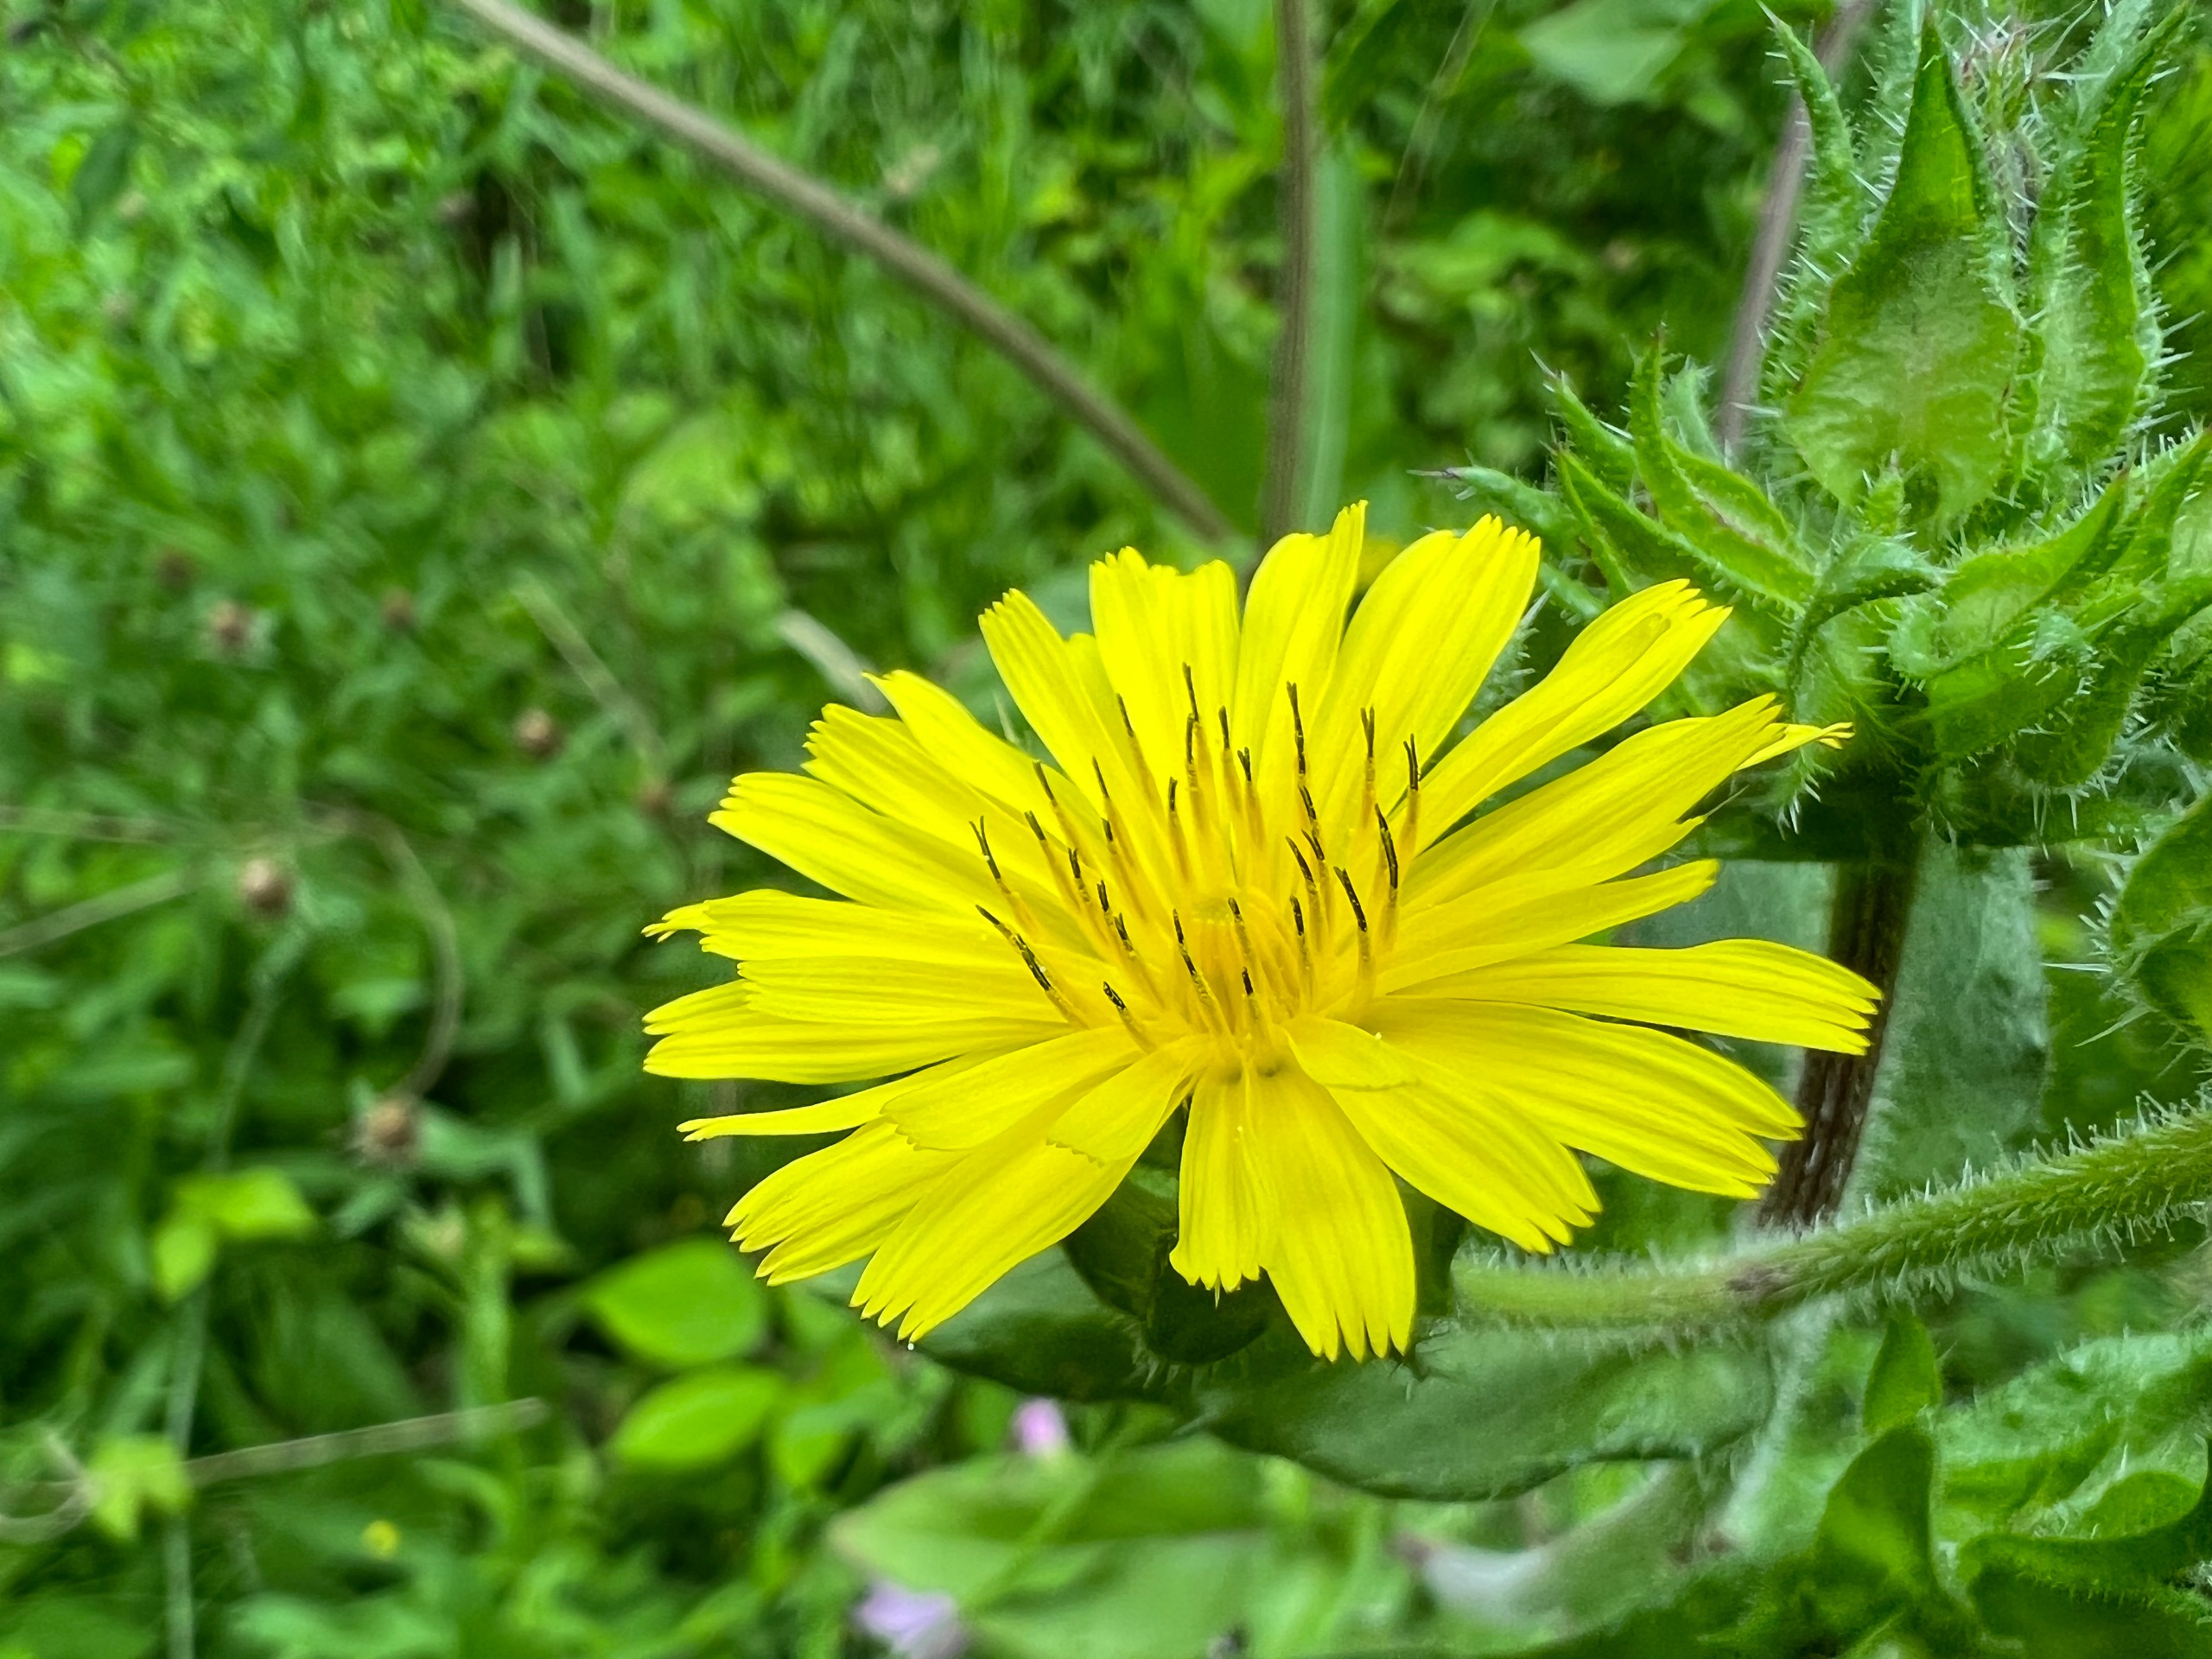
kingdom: Plantae
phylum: Tracheophyta
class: Magnoliopsida
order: Asterales
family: Asteraceae
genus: Helminthotheca
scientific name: Helminthotheca echioides
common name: Vingekurv
